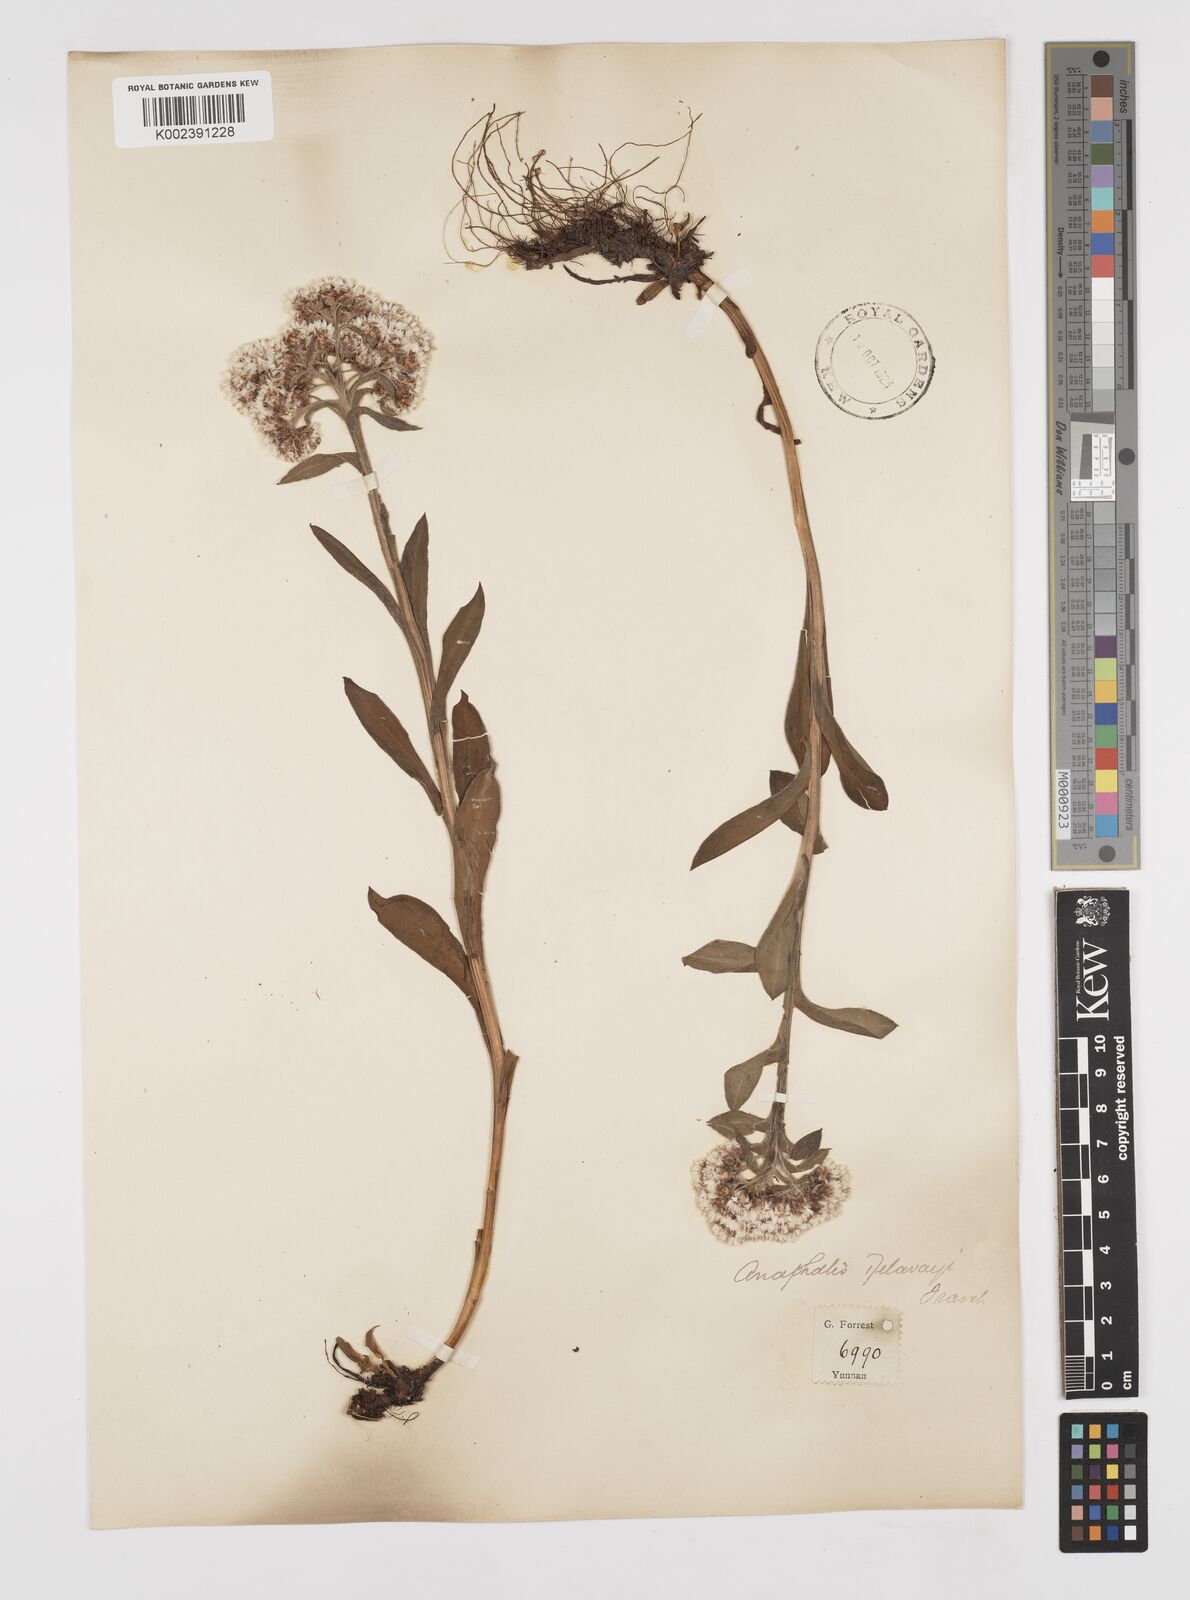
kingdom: Plantae
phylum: Tracheophyta
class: Magnoliopsida
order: Asterales
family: Asteraceae
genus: Anaphalis
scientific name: Anaphalis delavayi
